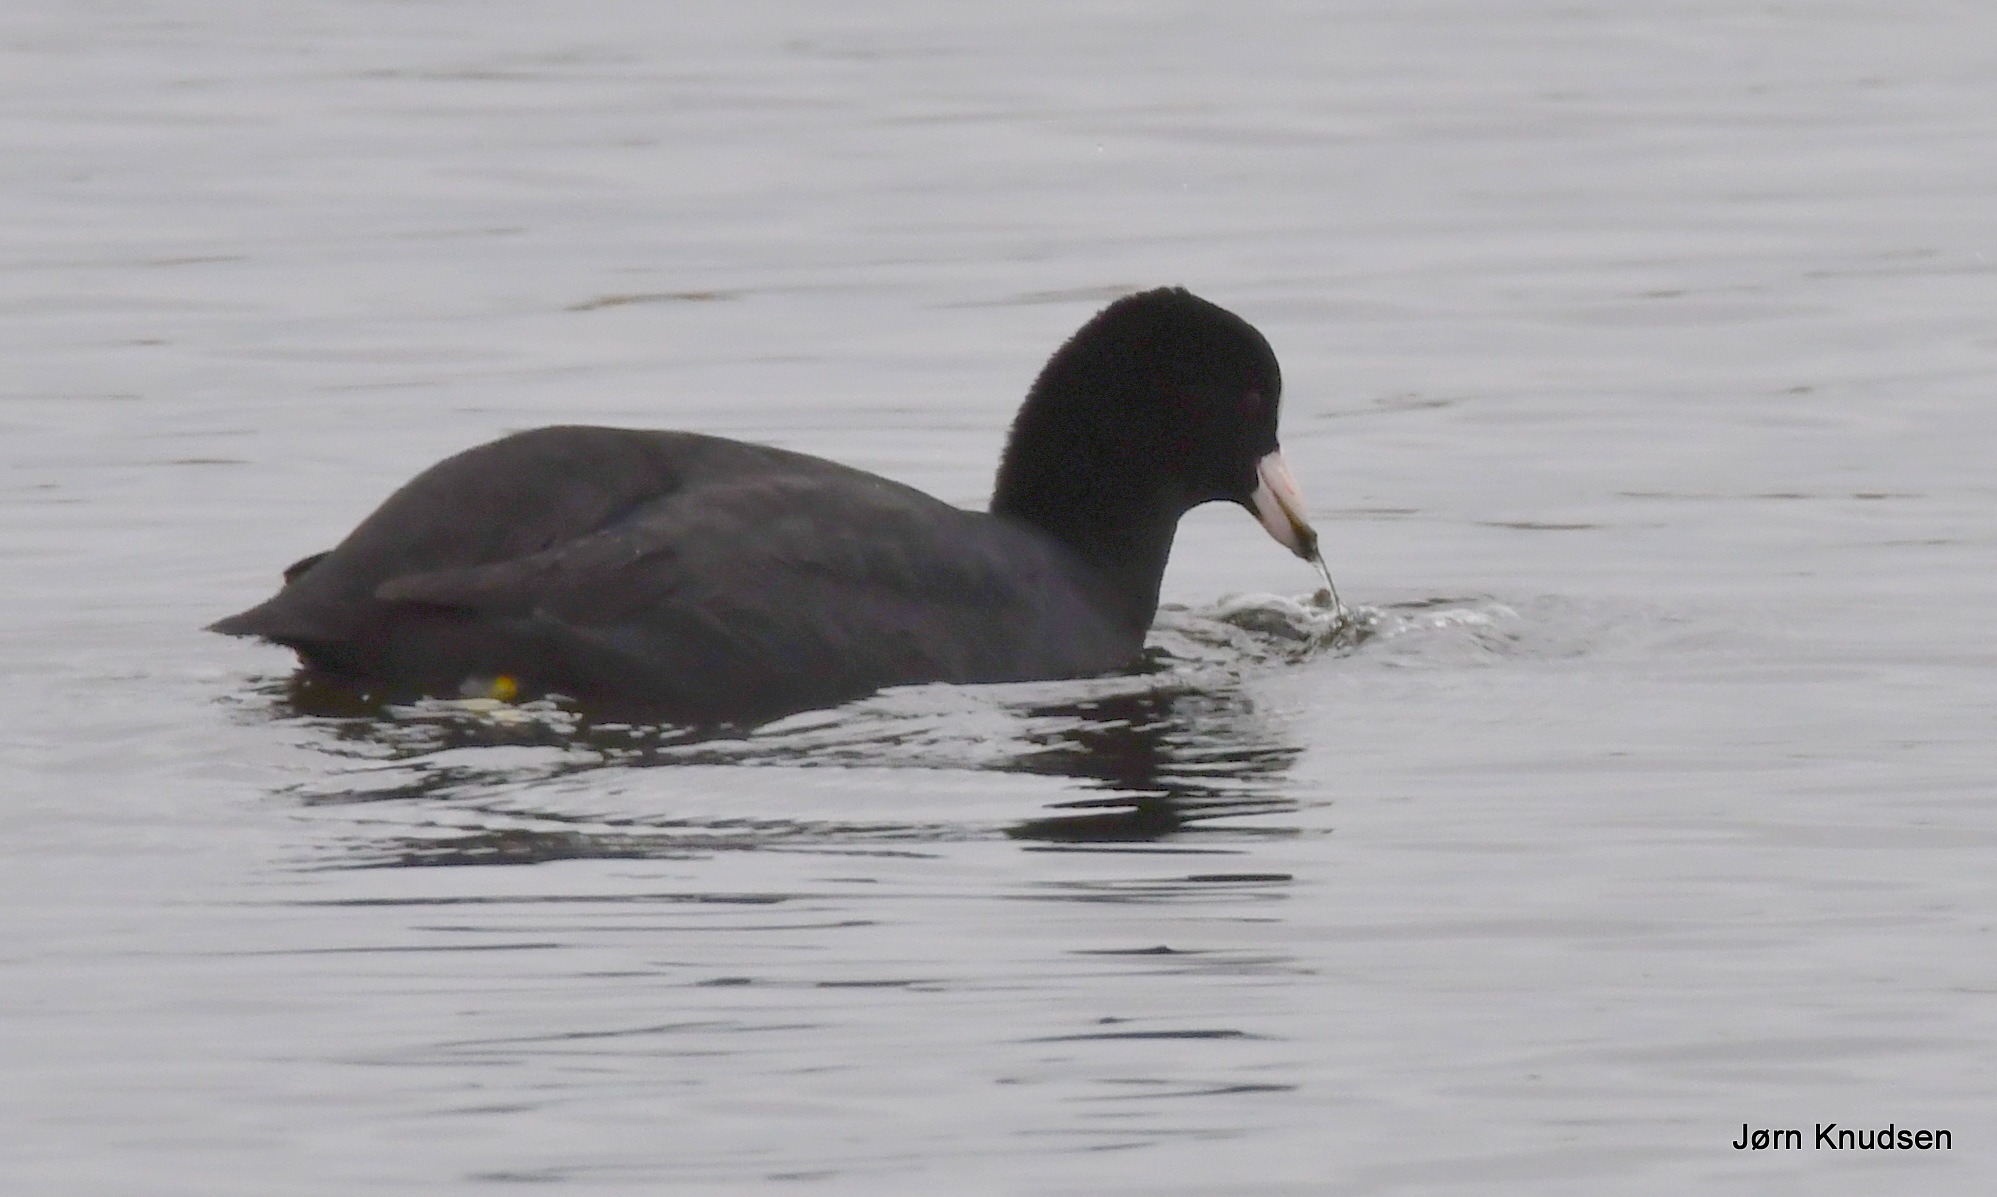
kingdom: Animalia
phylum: Chordata
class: Aves
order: Gruiformes
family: Rallidae
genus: Fulica
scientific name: Fulica atra
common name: Blishøne
